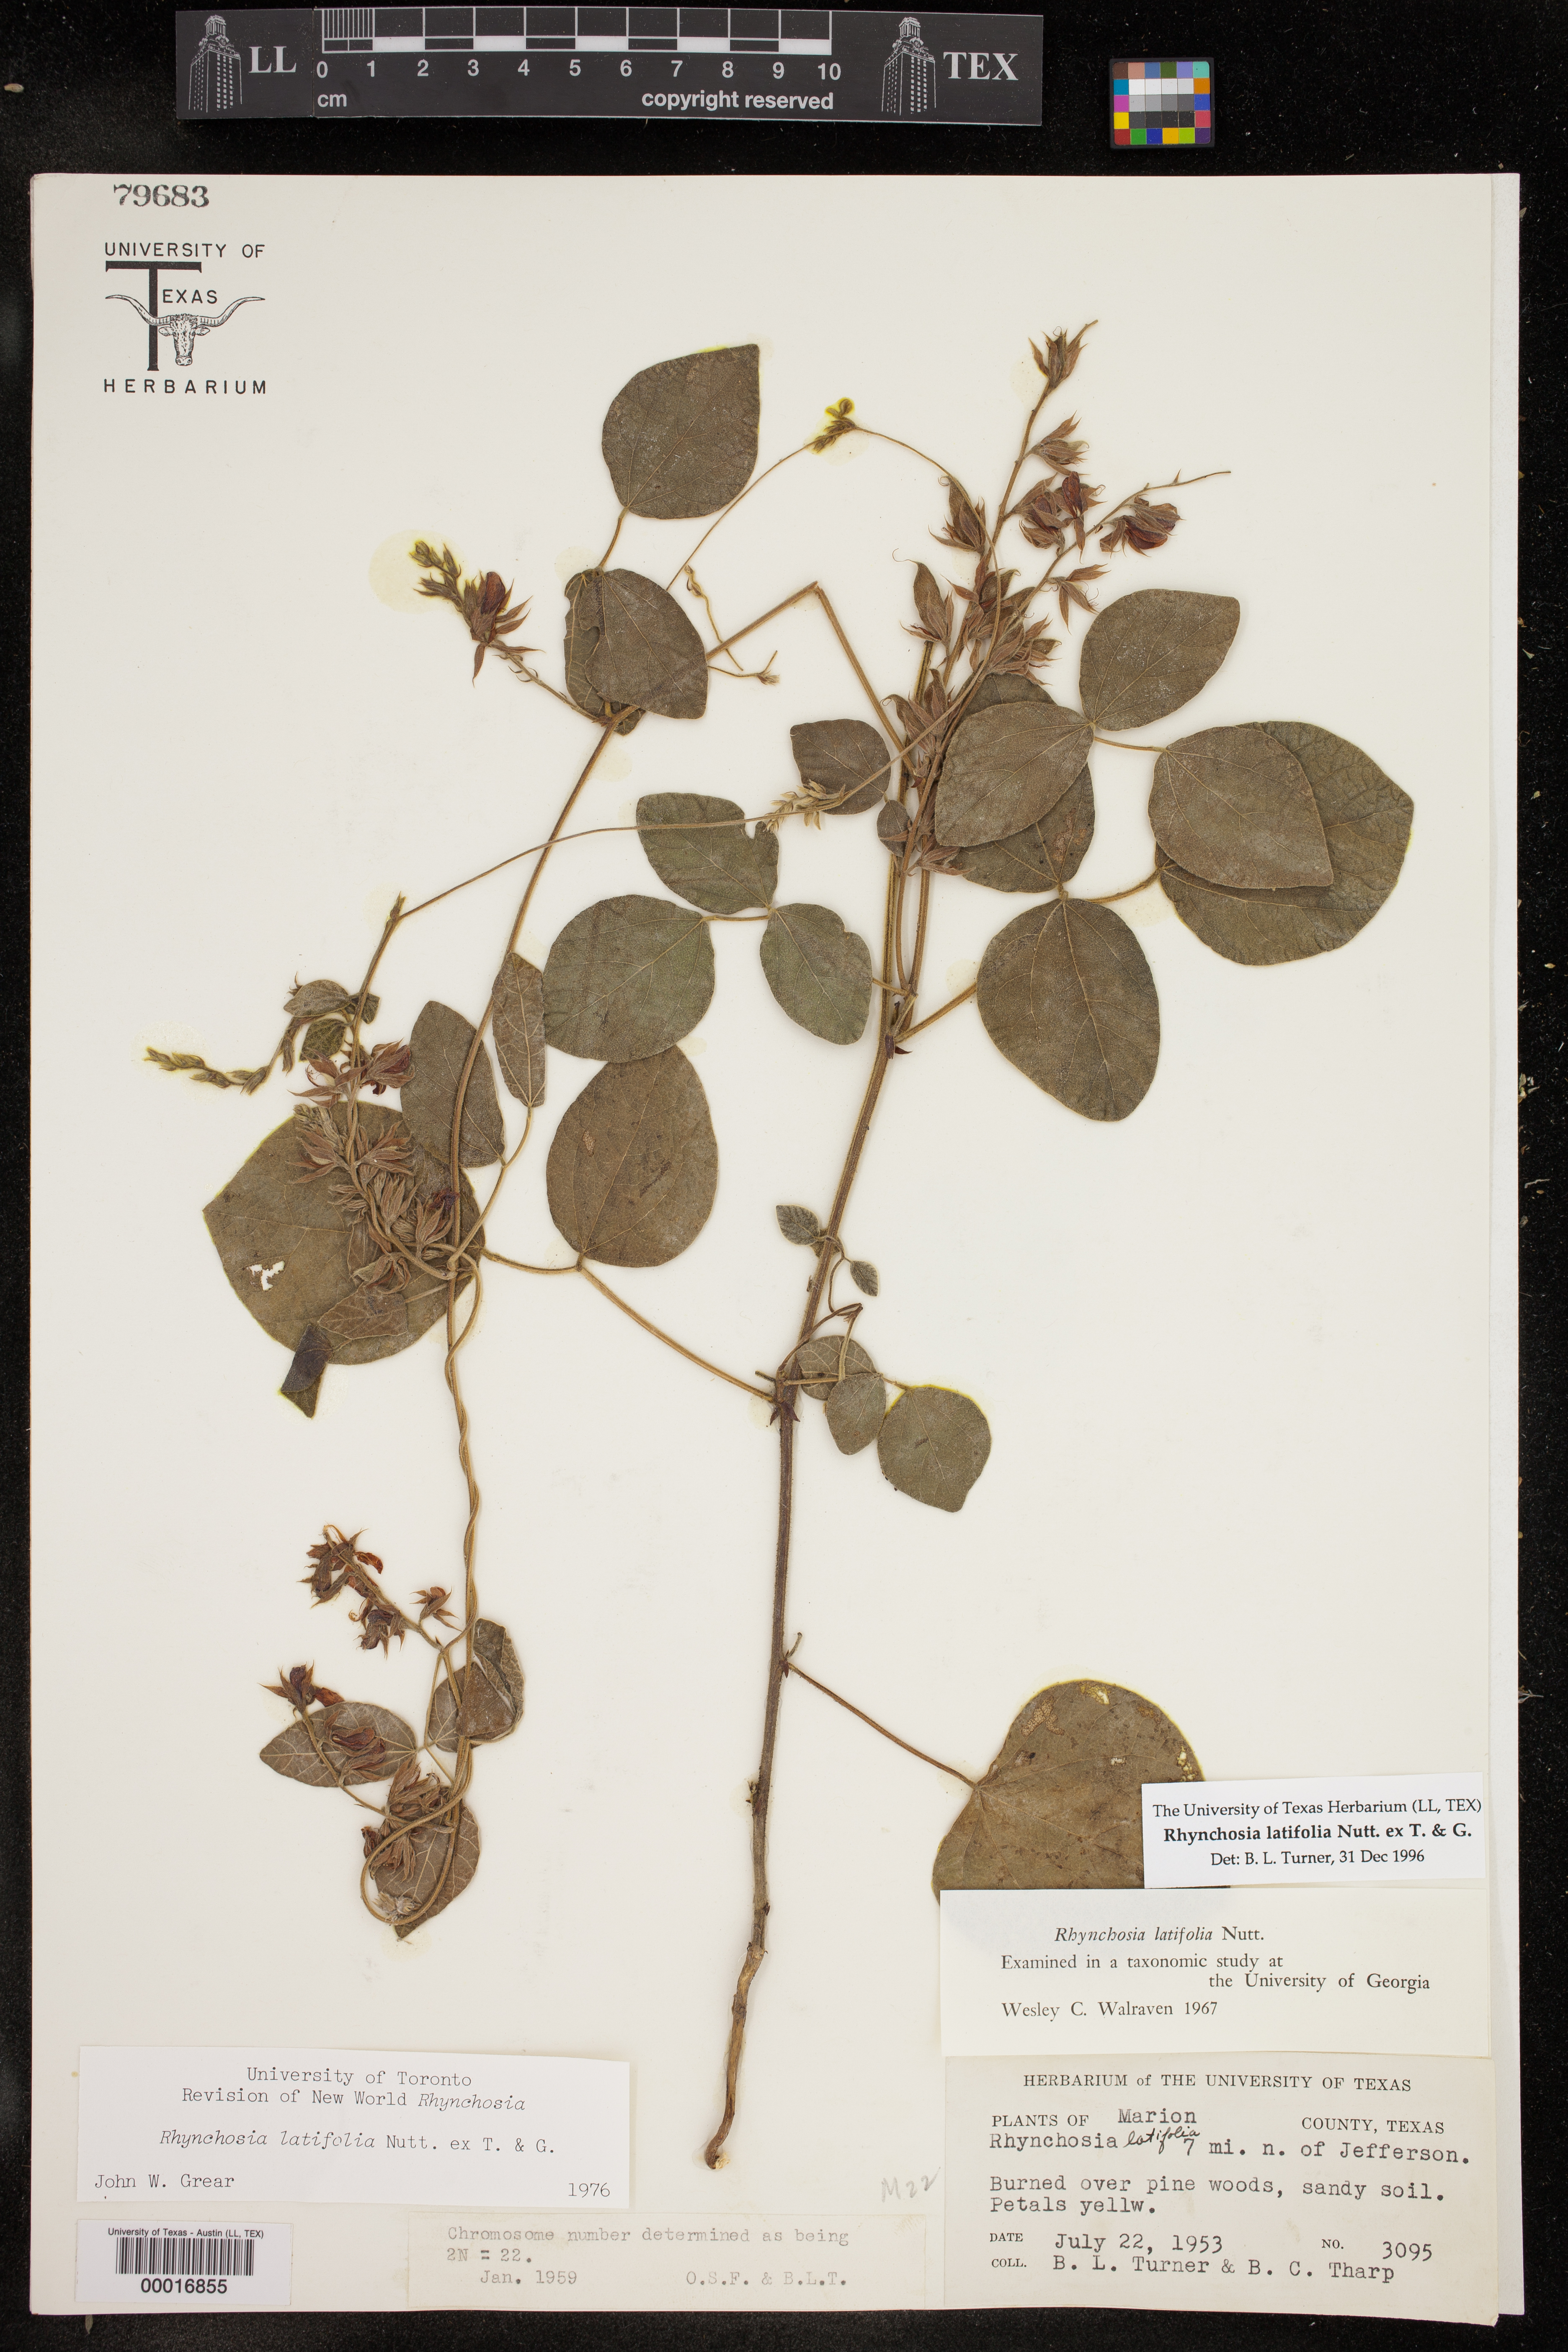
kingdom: Plantae
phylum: Tracheophyta
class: Magnoliopsida
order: Fabales
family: Fabaceae
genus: Rhynchosia
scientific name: Rhynchosia latifolia
